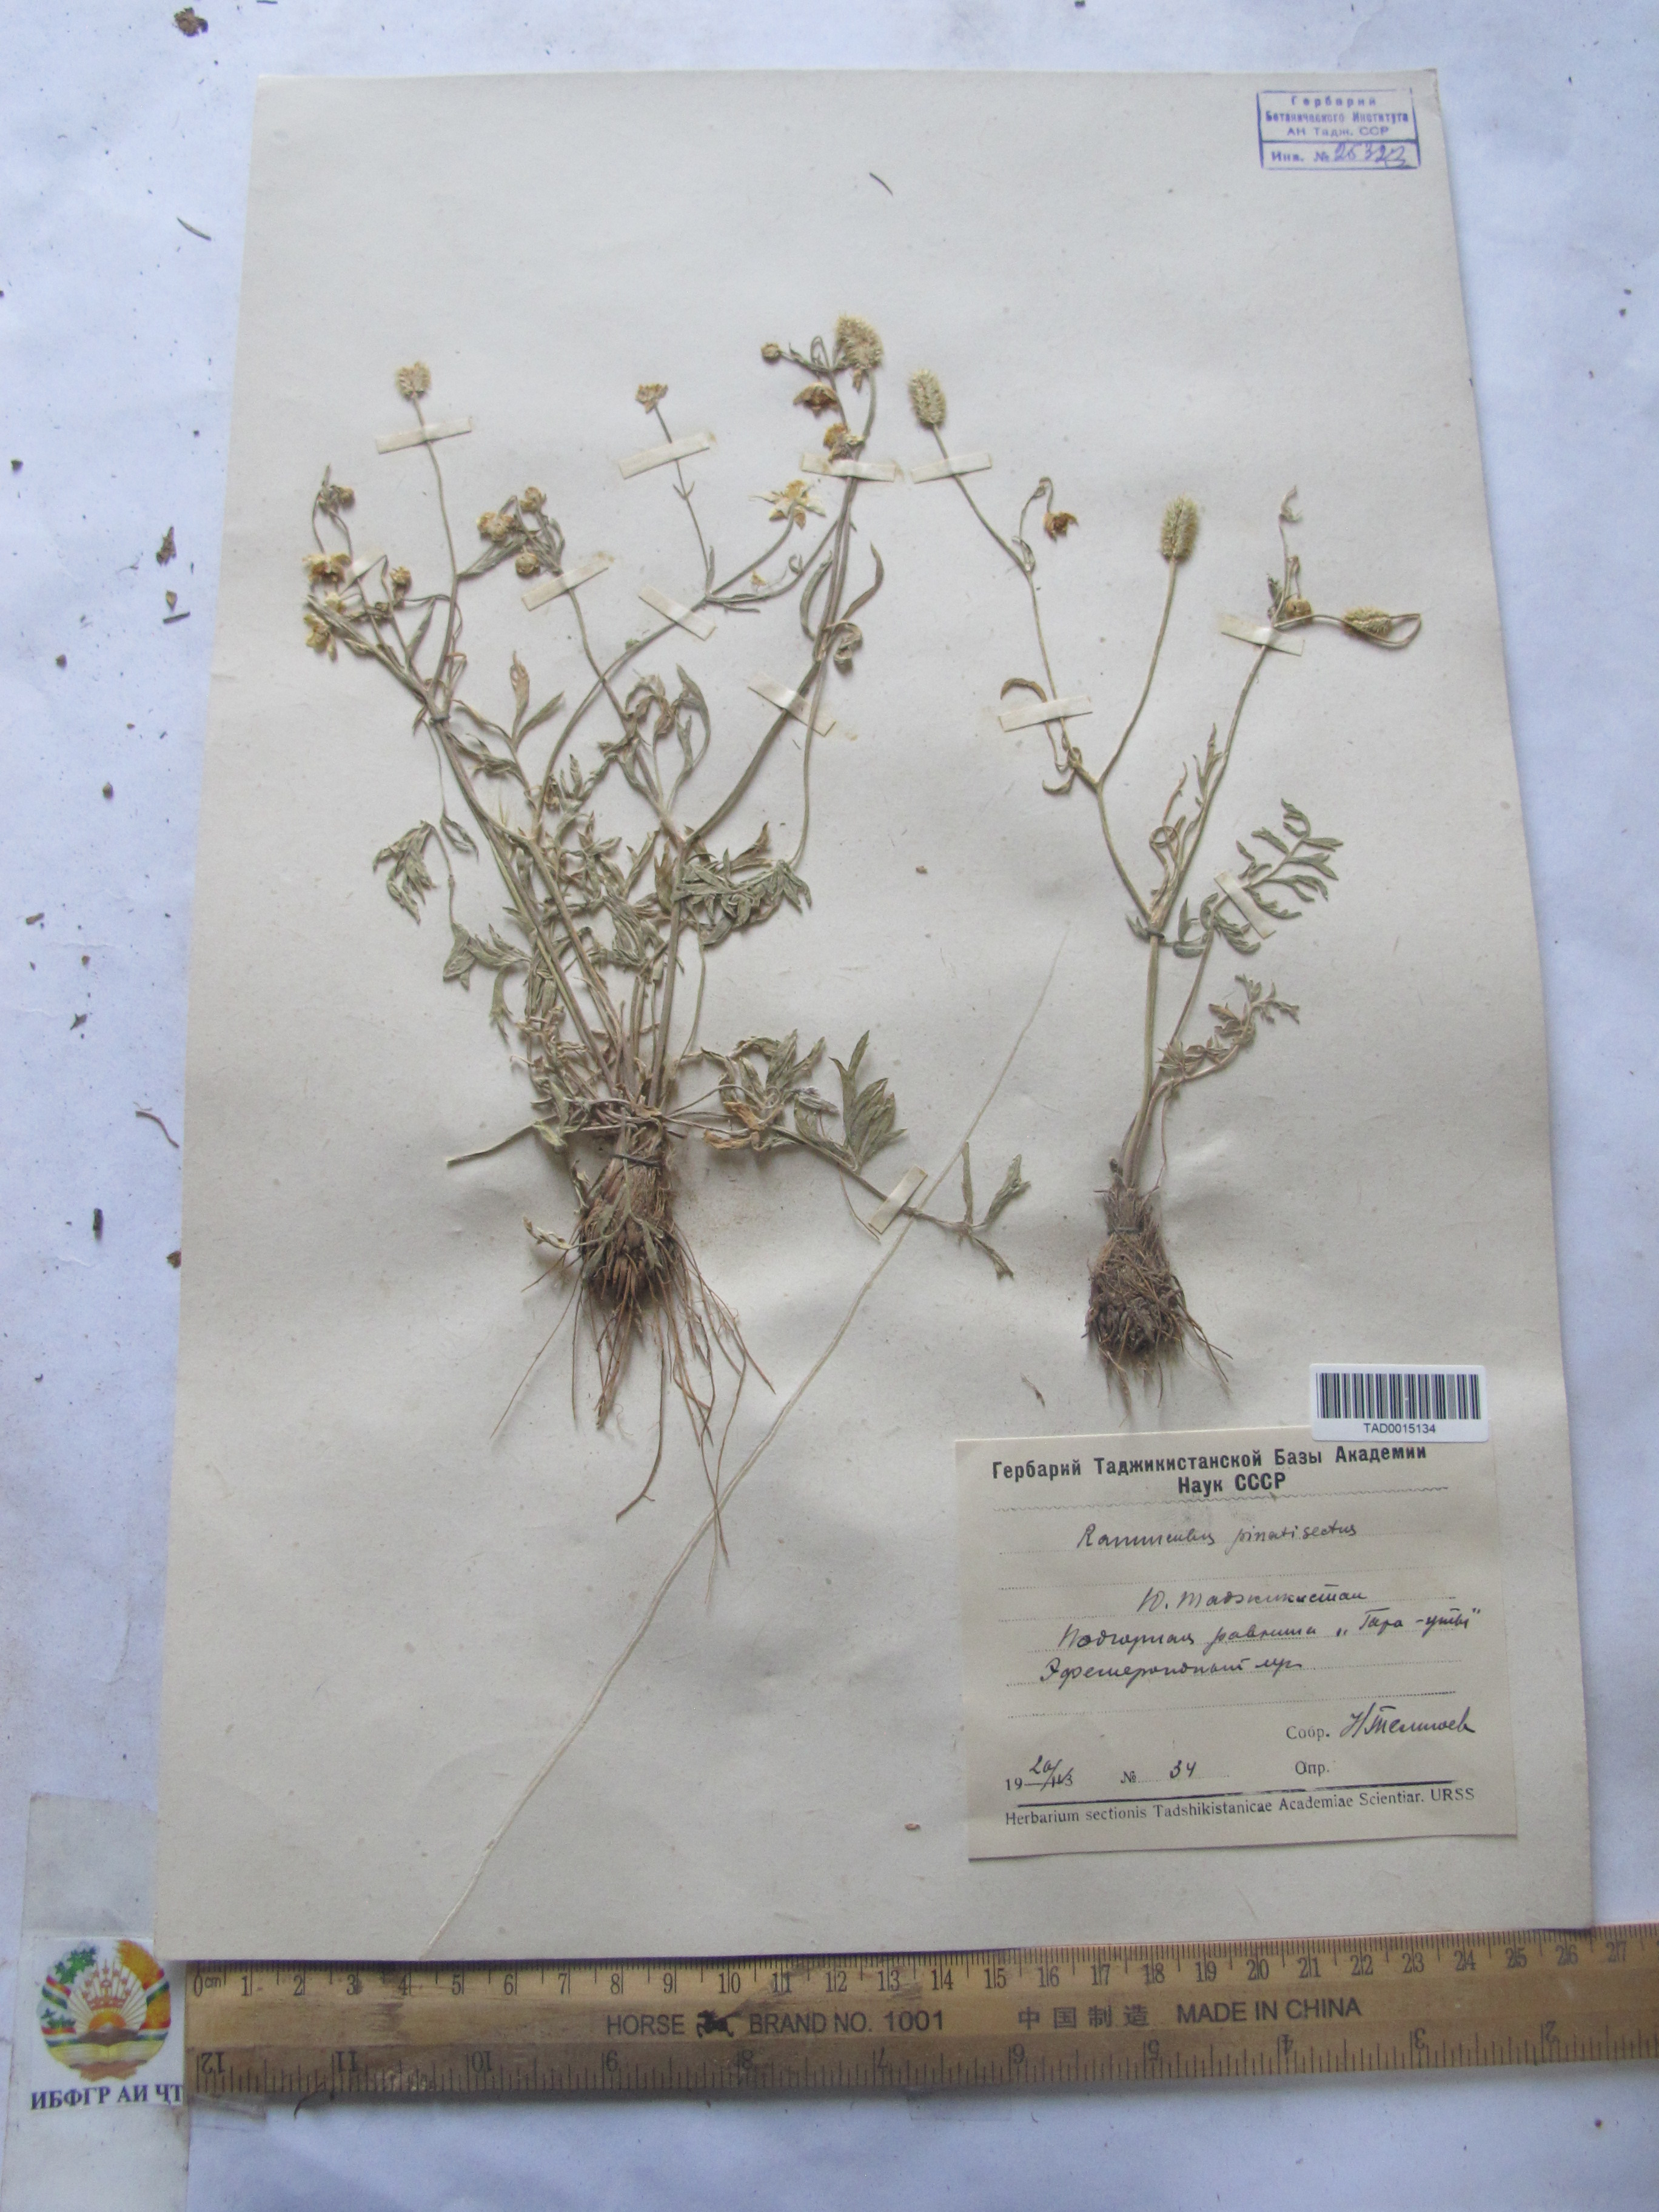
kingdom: Plantae
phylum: Tracheophyta
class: Magnoliopsida
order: Ranunculales
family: Ranunculaceae
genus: Ranunculus
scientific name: Ranunculus pinnatisectus
